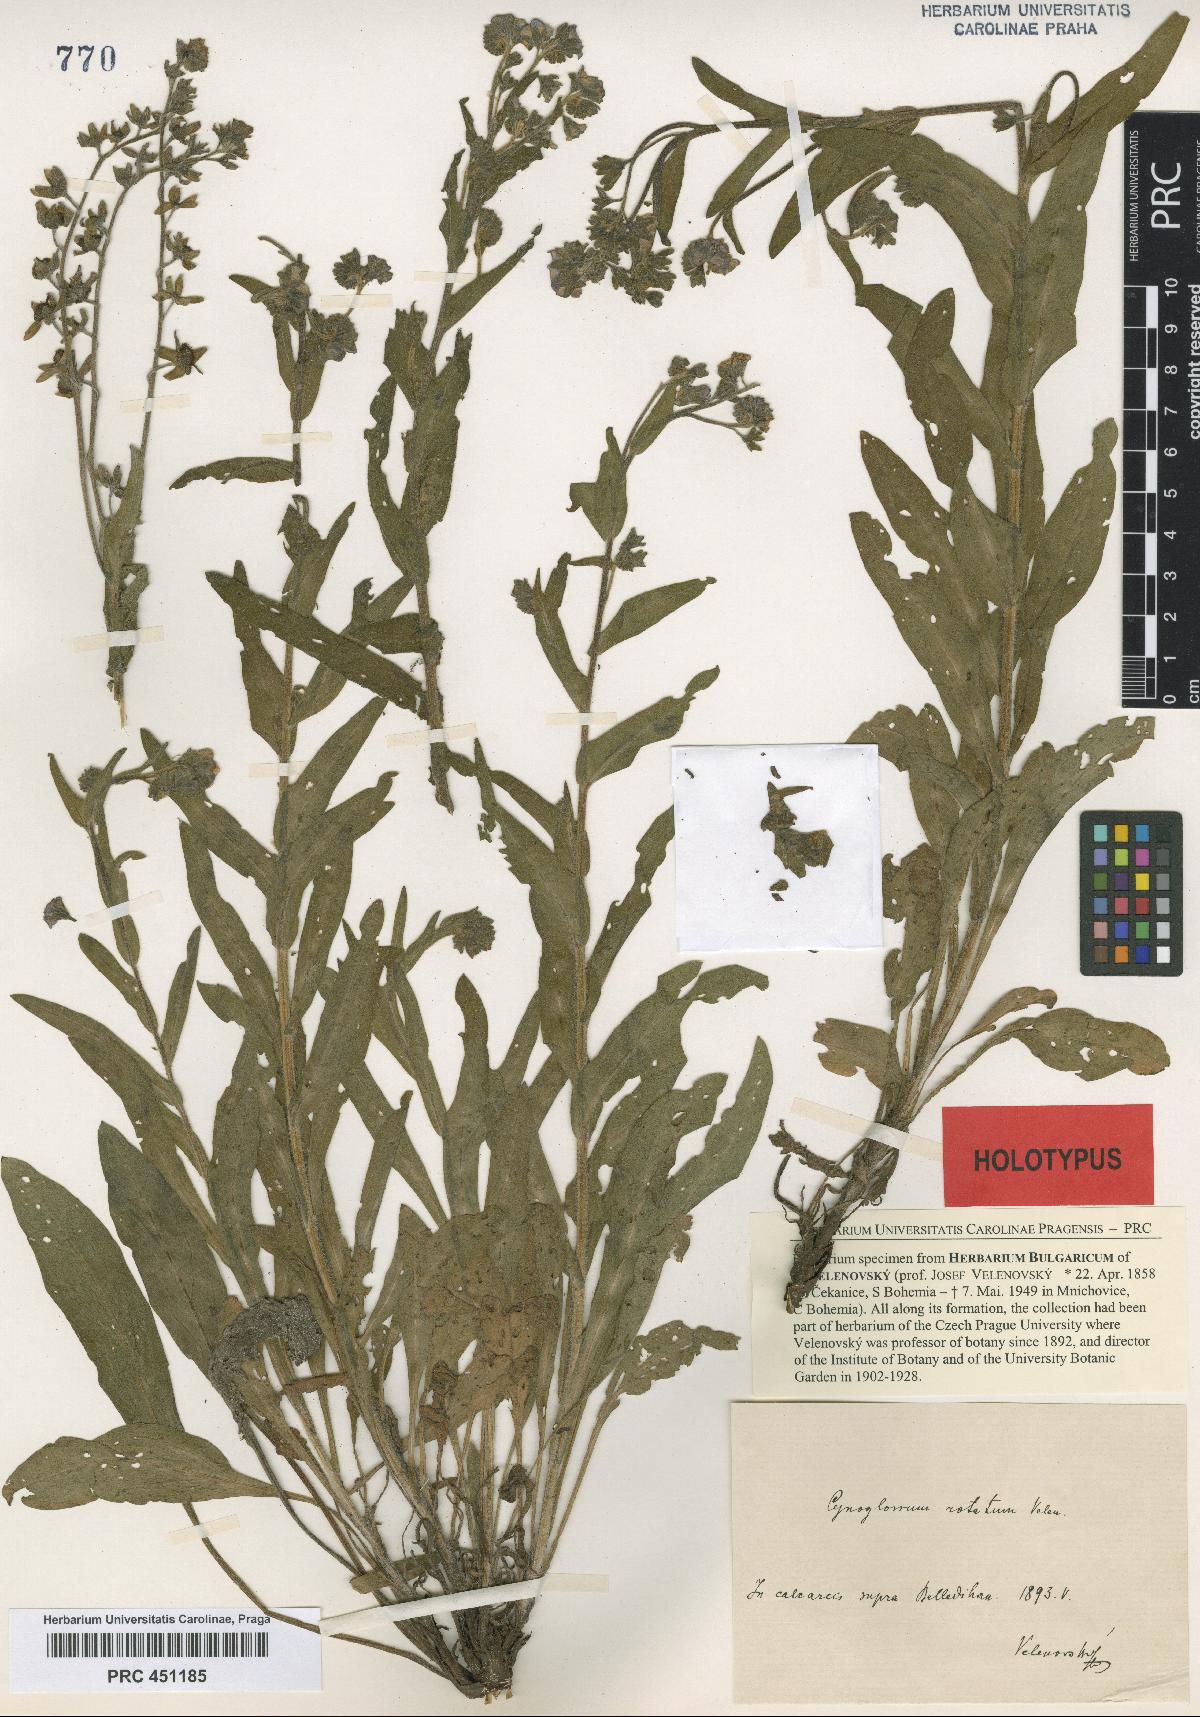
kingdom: Plantae
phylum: Tracheophyta
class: Magnoliopsida
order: Boraginales
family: Boraginaceae
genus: Cynoglossum
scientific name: Cynoglossum montanum
